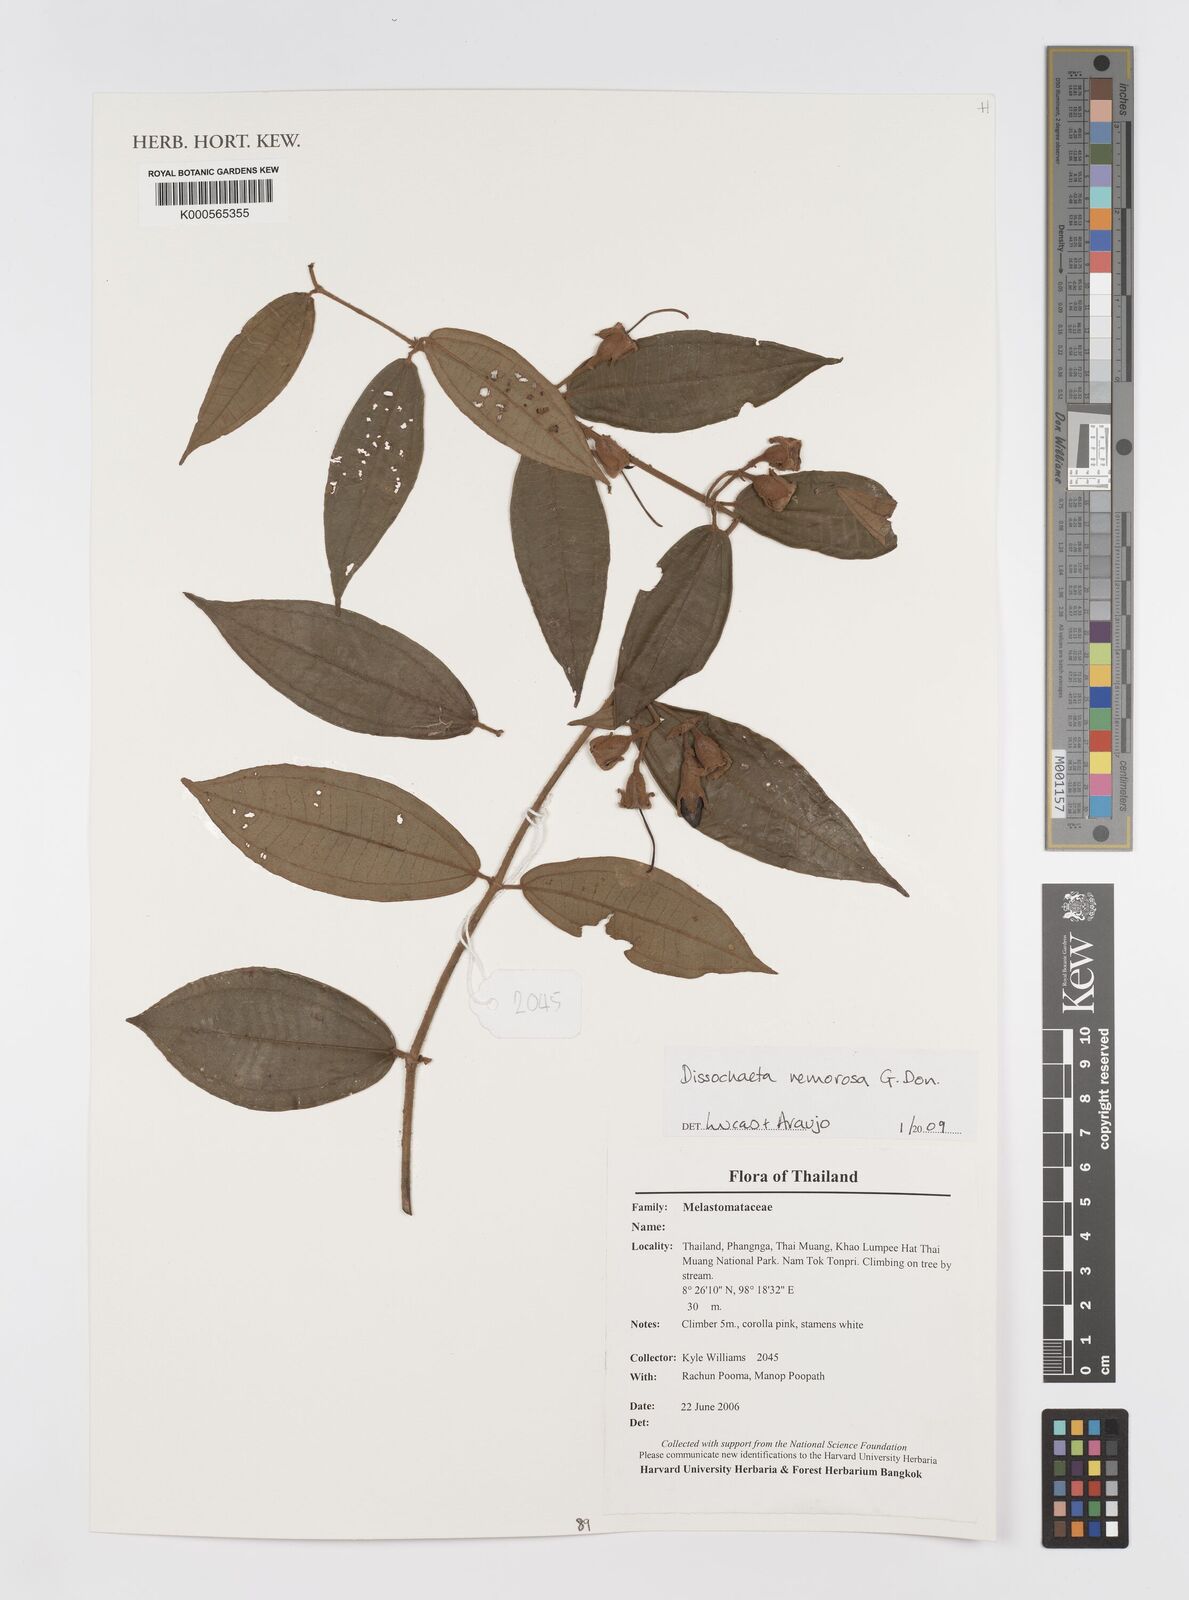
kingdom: Plantae
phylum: Tracheophyta
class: Magnoliopsida
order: Myrtales
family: Melastomataceae
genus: Dissochaeta
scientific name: Dissochaeta
